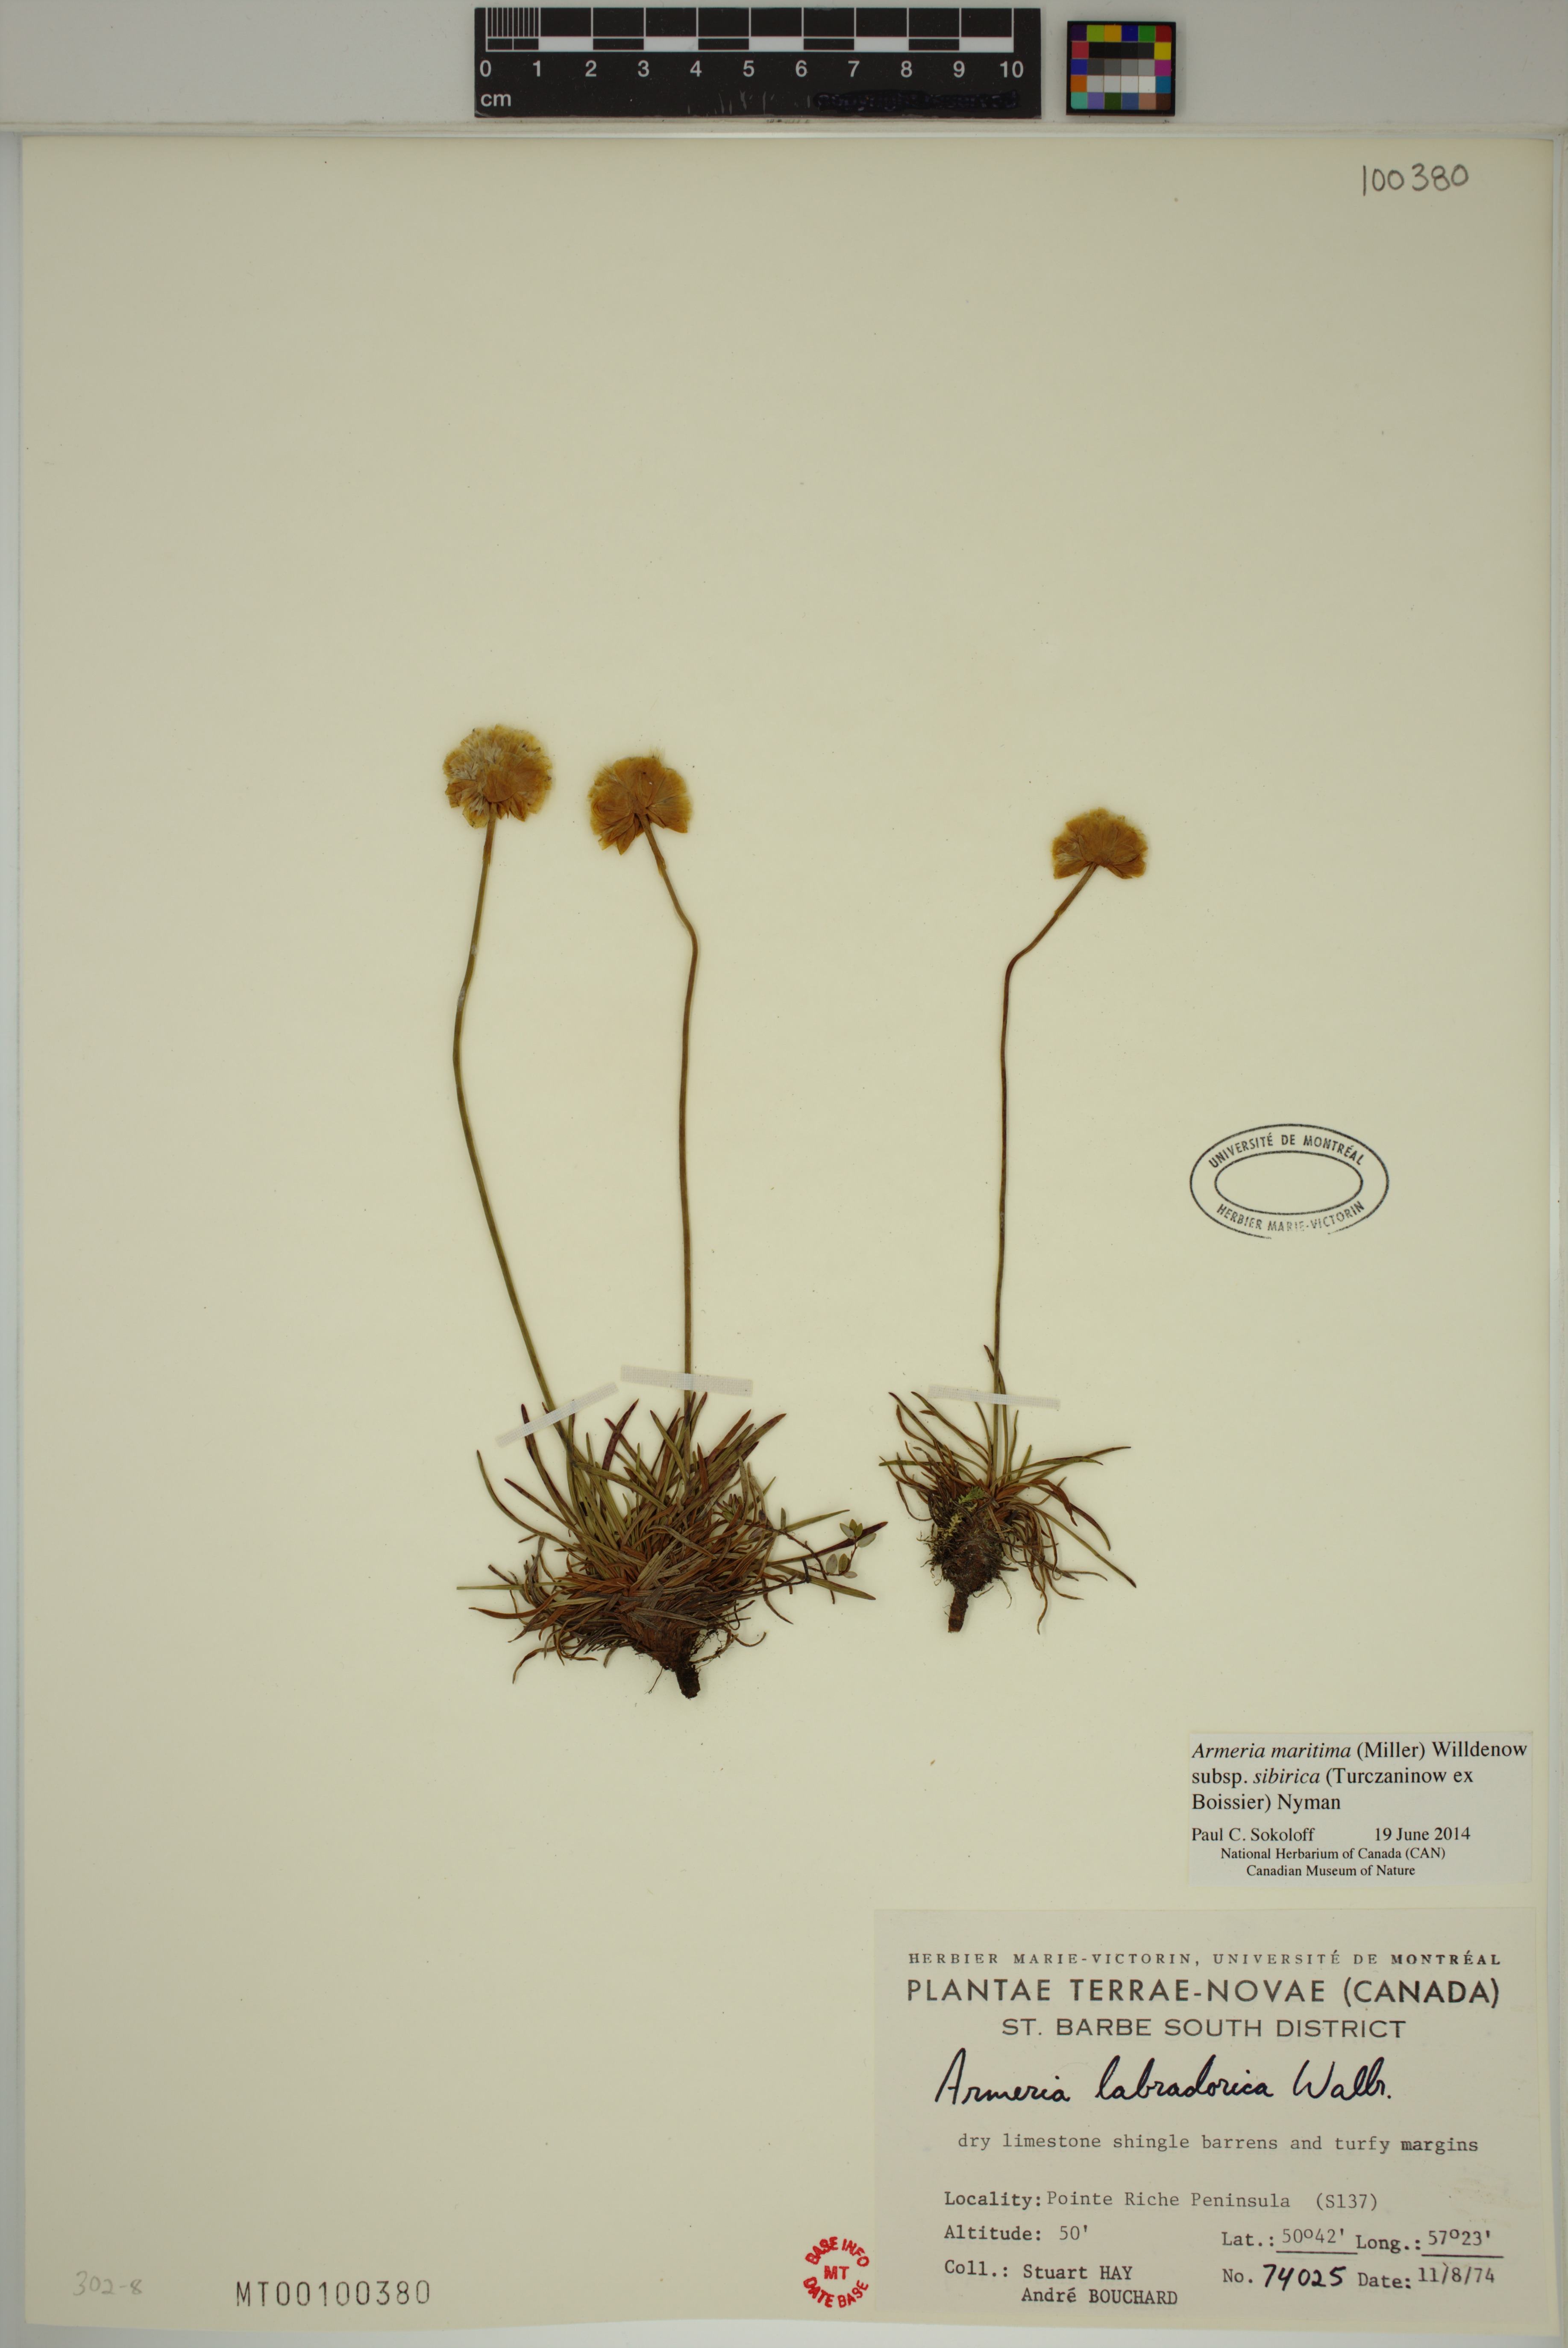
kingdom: Plantae
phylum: Tracheophyta
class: Magnoliopsida
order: Caryophyllales
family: Plumbaginaceae
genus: Armeria
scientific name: Armeria maritima
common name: Thrift
